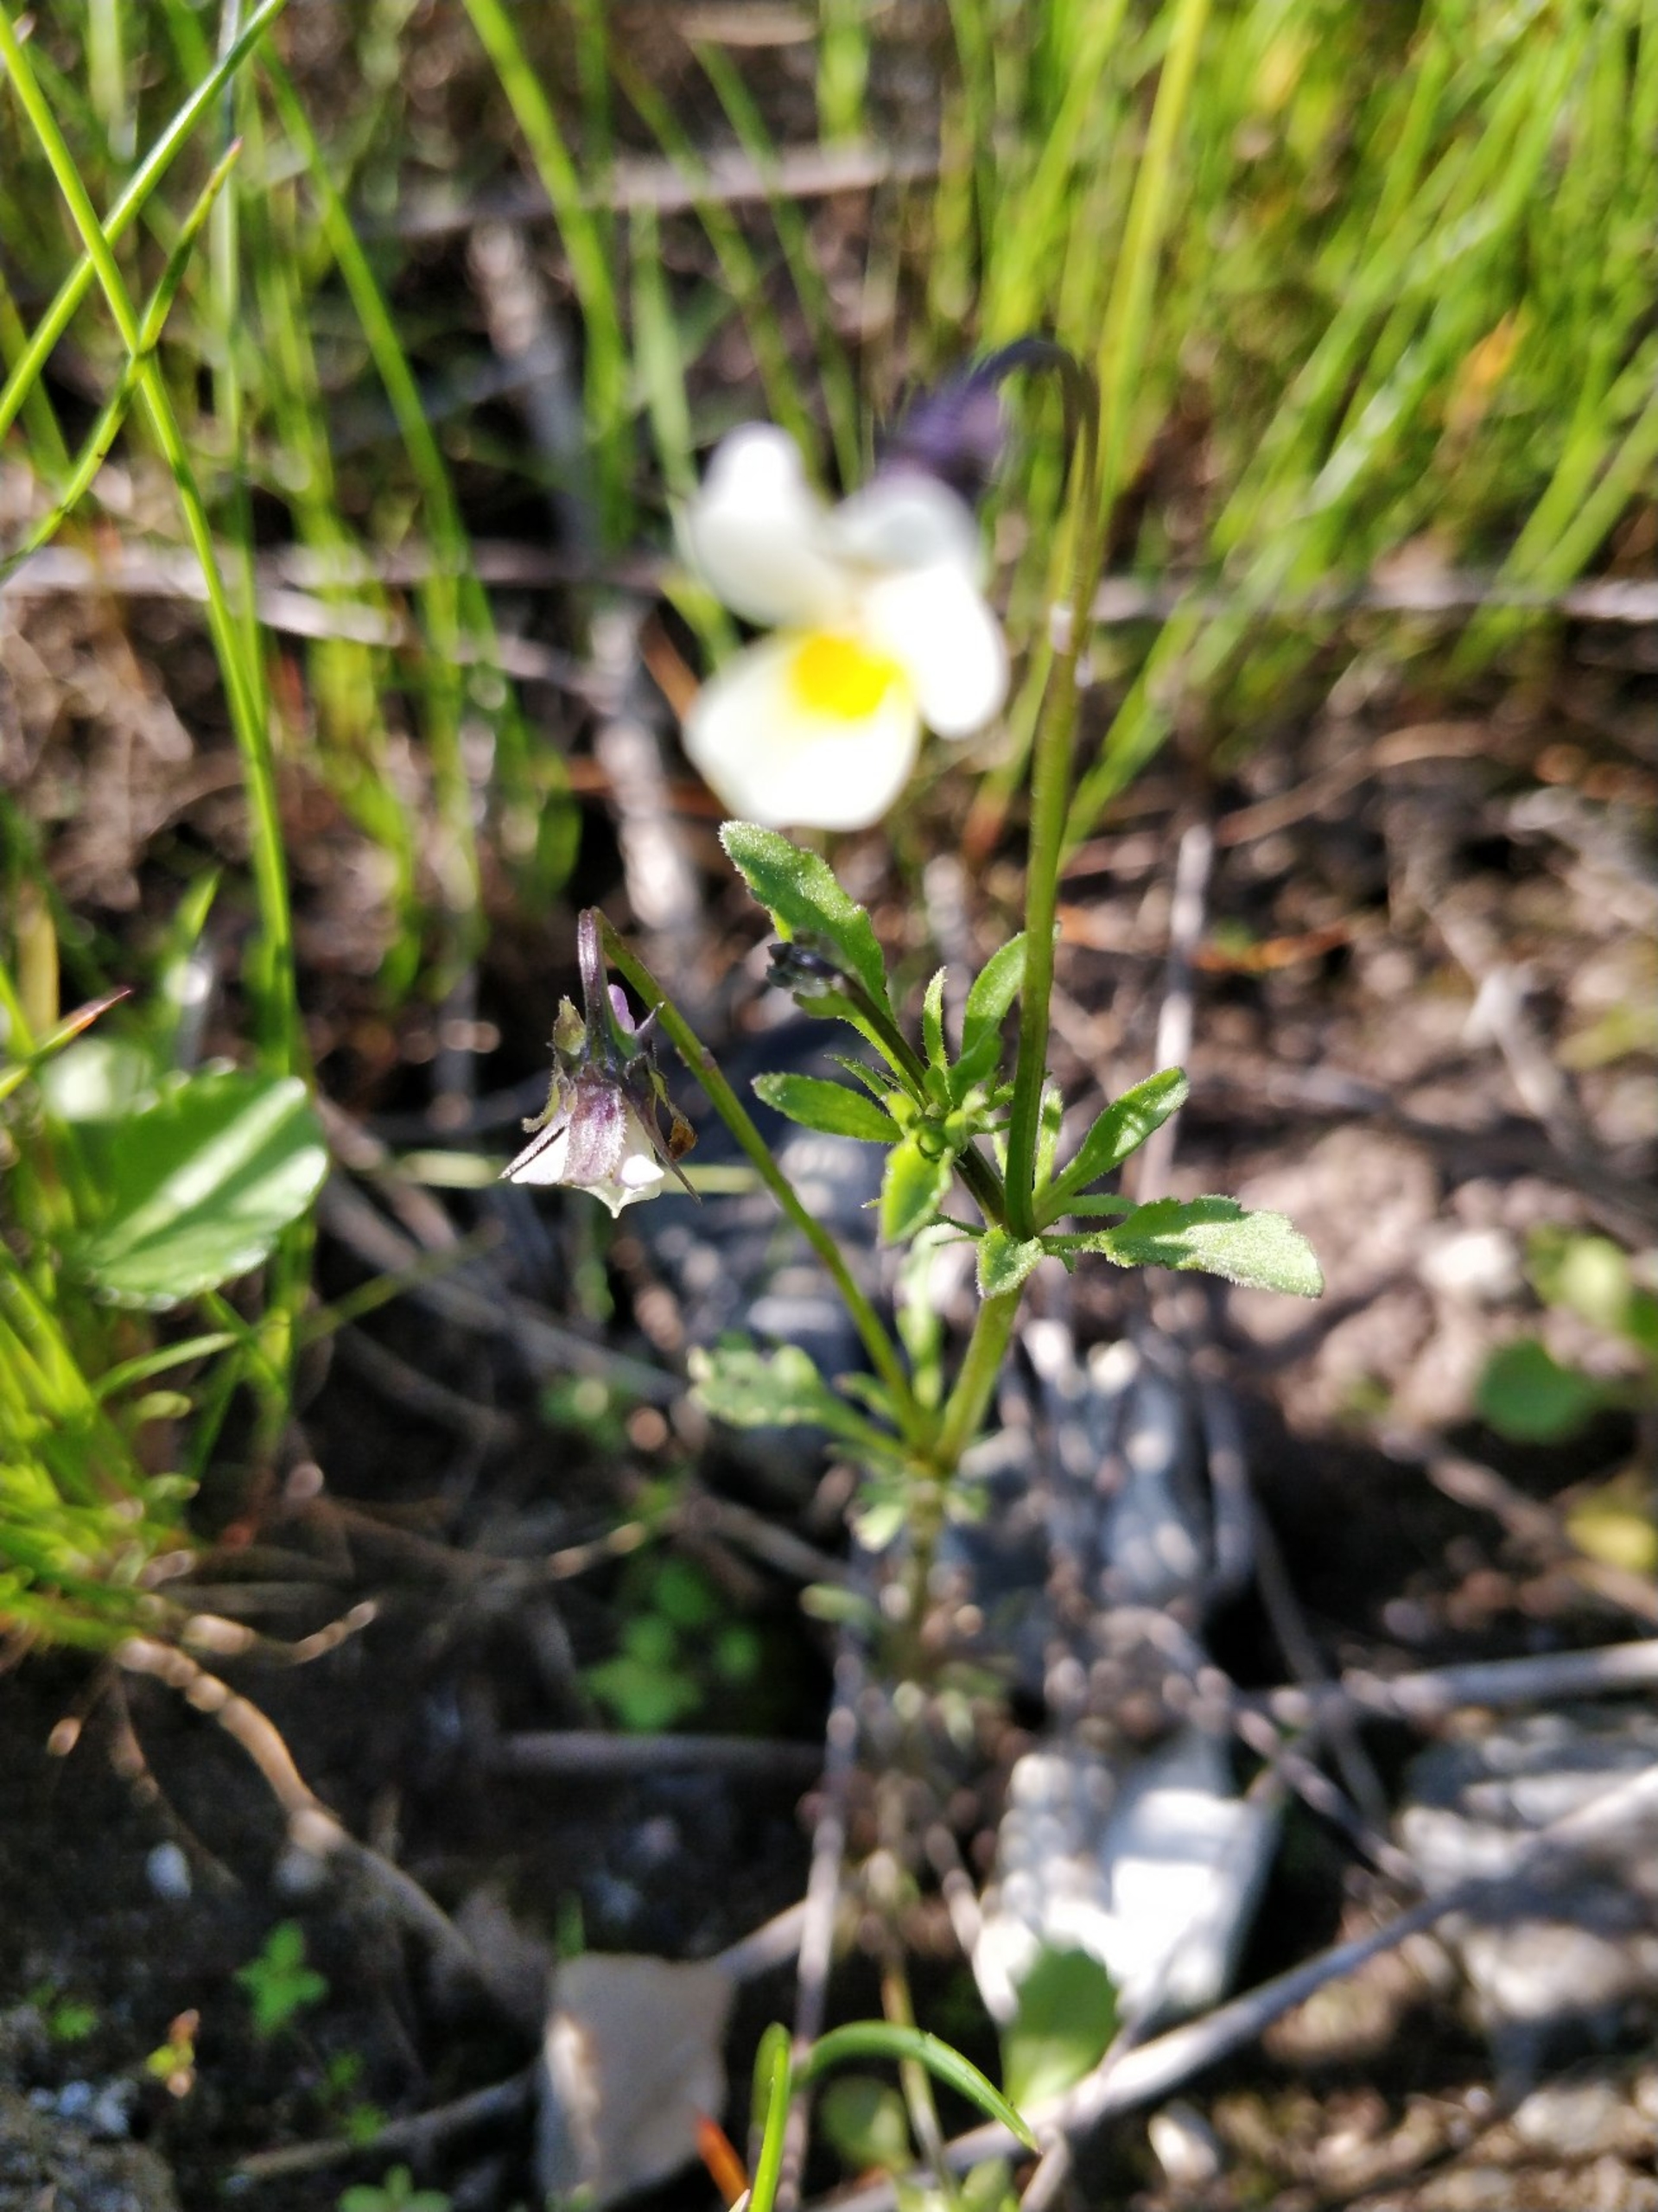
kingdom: Plantae
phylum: Tracheophyta
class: Magnoliopsida
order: Malpighiales
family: Violaceae
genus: Viola
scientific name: Viola arvensis
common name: Ager-stedmoderblomst
